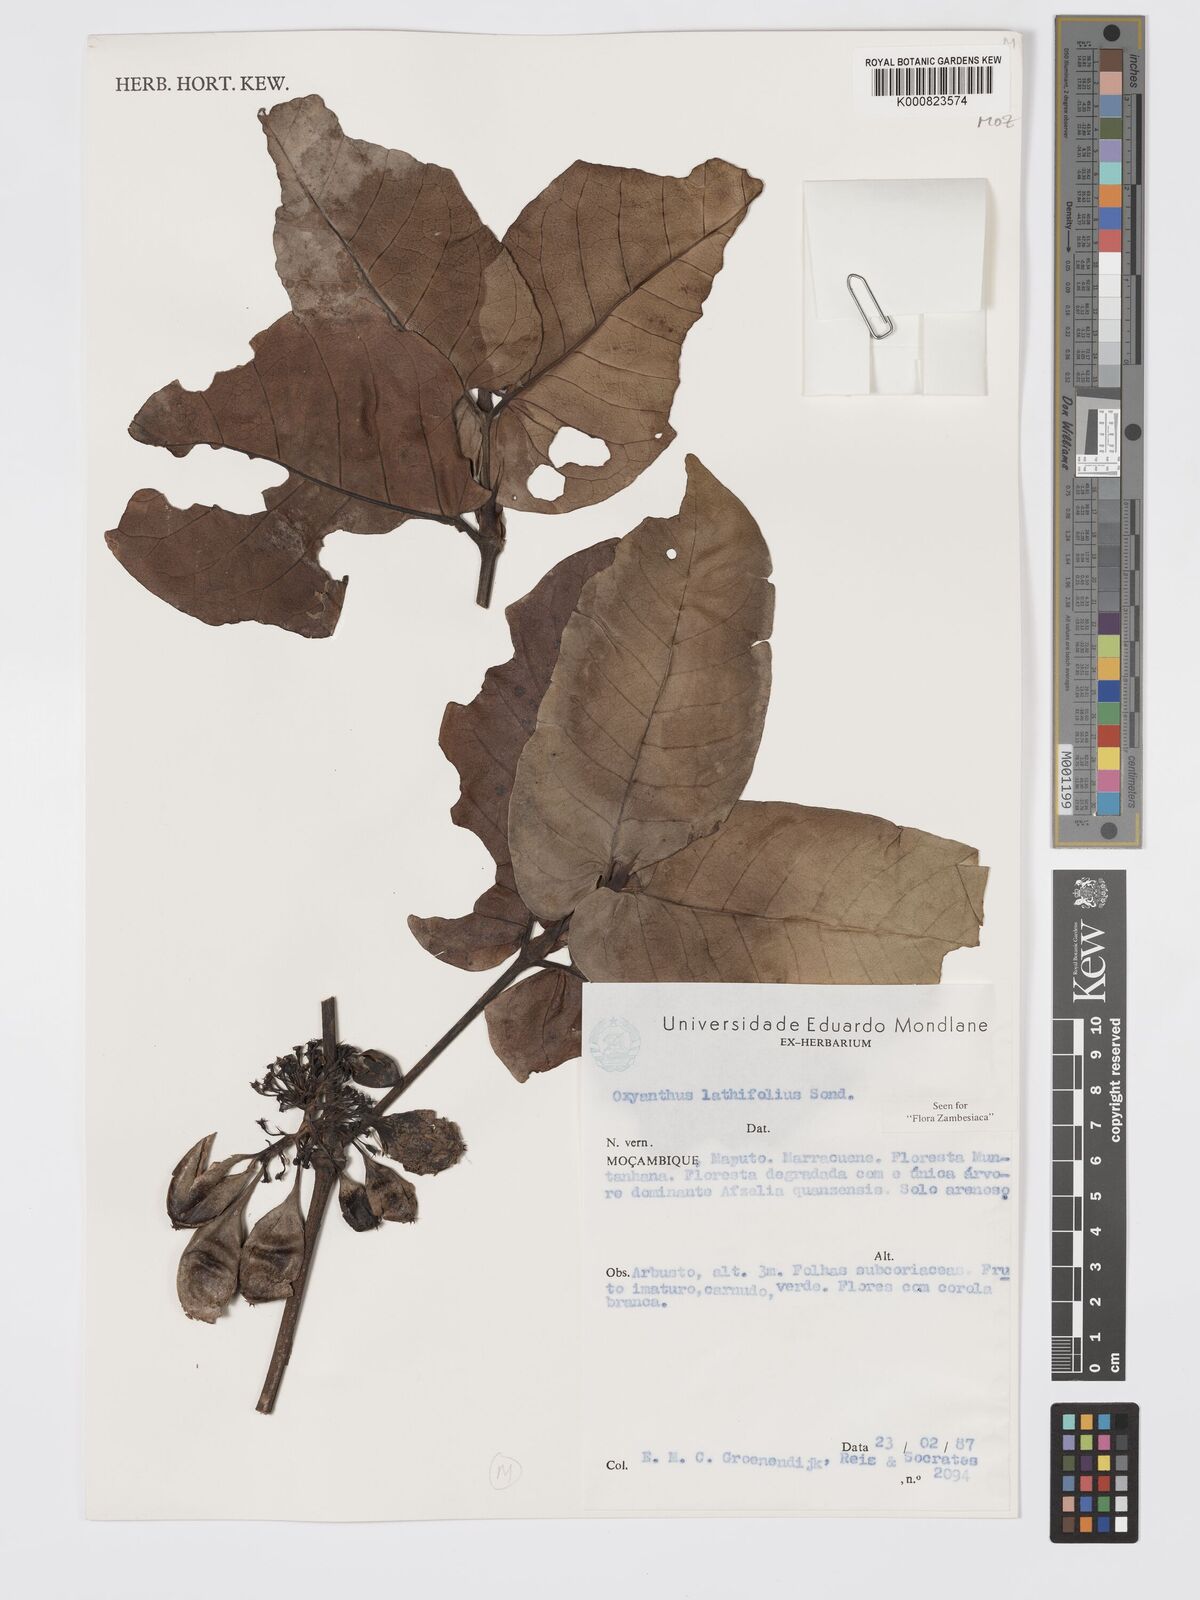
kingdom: Plantae
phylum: Tracheophyta
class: Magnoliopsida
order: Gentianales
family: Rubiaceae
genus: Oxyanthus
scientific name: Oxyanthus latifolius
